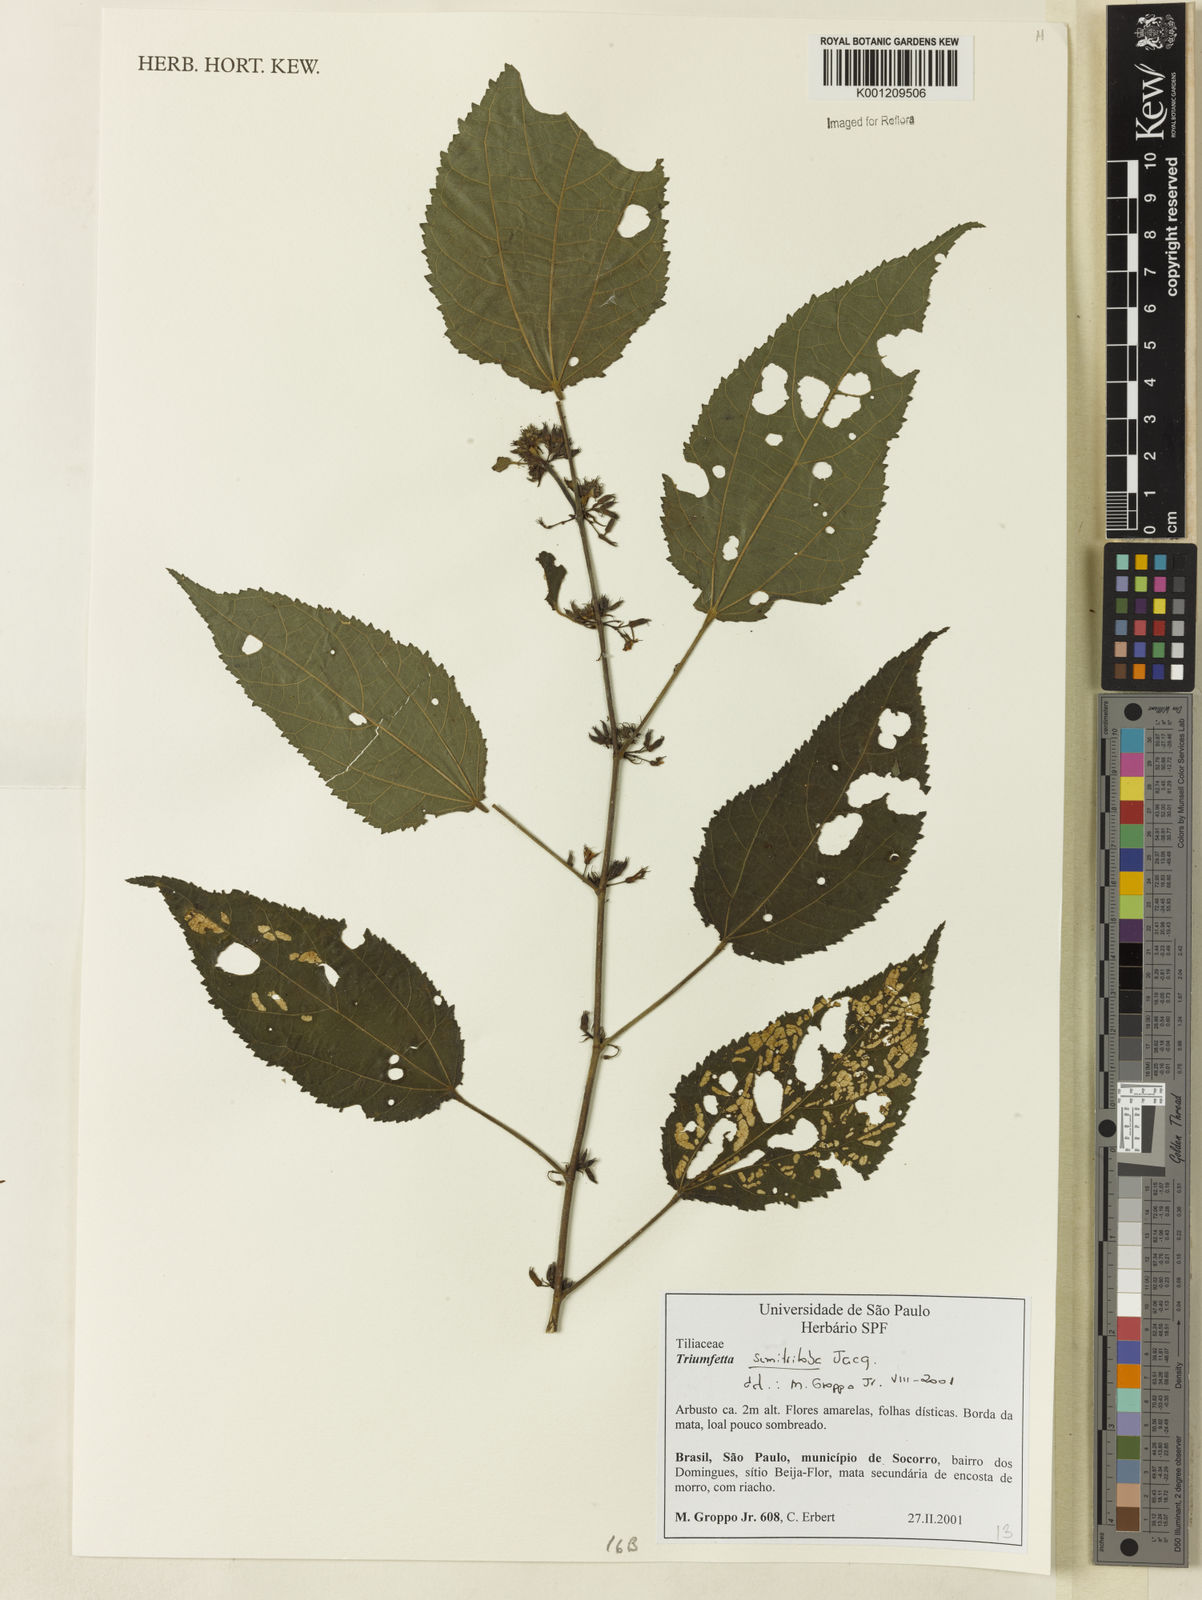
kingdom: Plantae
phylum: Tracheophyta
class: Magnoliopsida
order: Malvales
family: Malvaceae
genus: Triumfetta
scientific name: Triumfetta semitriloba
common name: Sacramento burbark
